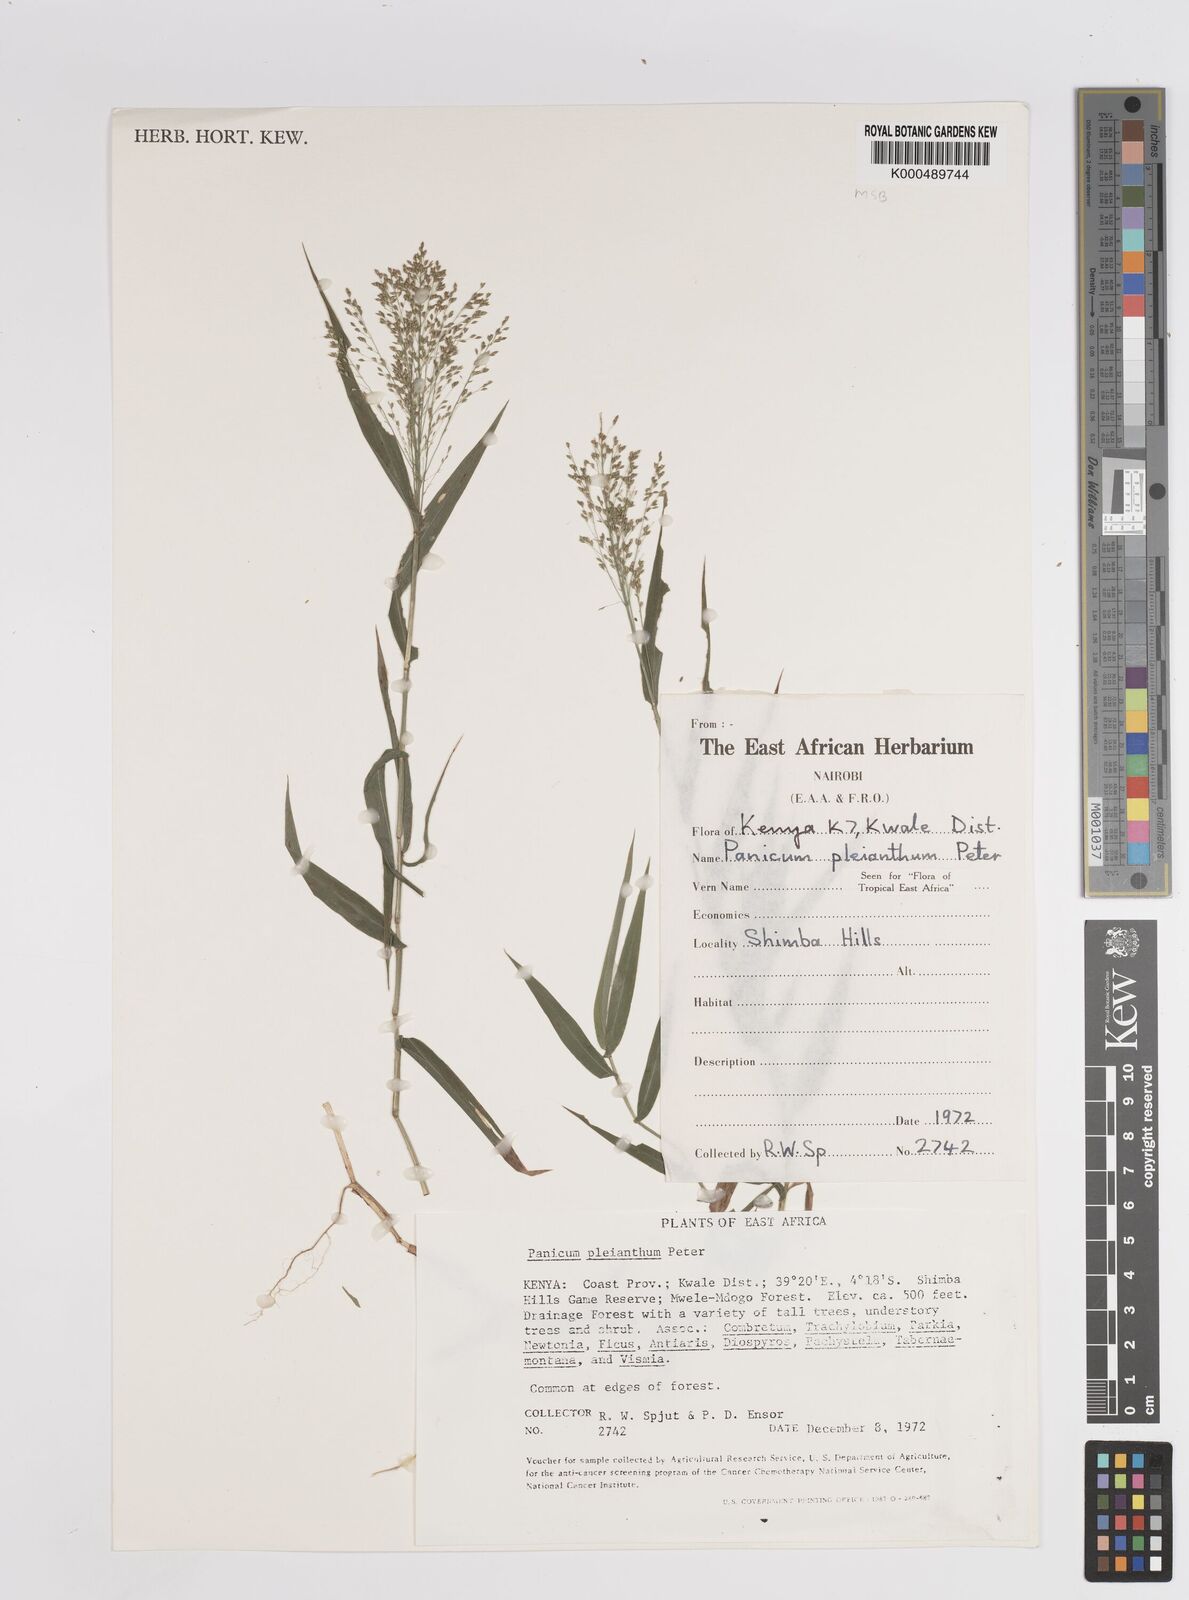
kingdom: Plantae
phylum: Tracheophyta
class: Liliopsida
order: Poales
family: Poaceae
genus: Panicum
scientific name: Panicum pleianthum
